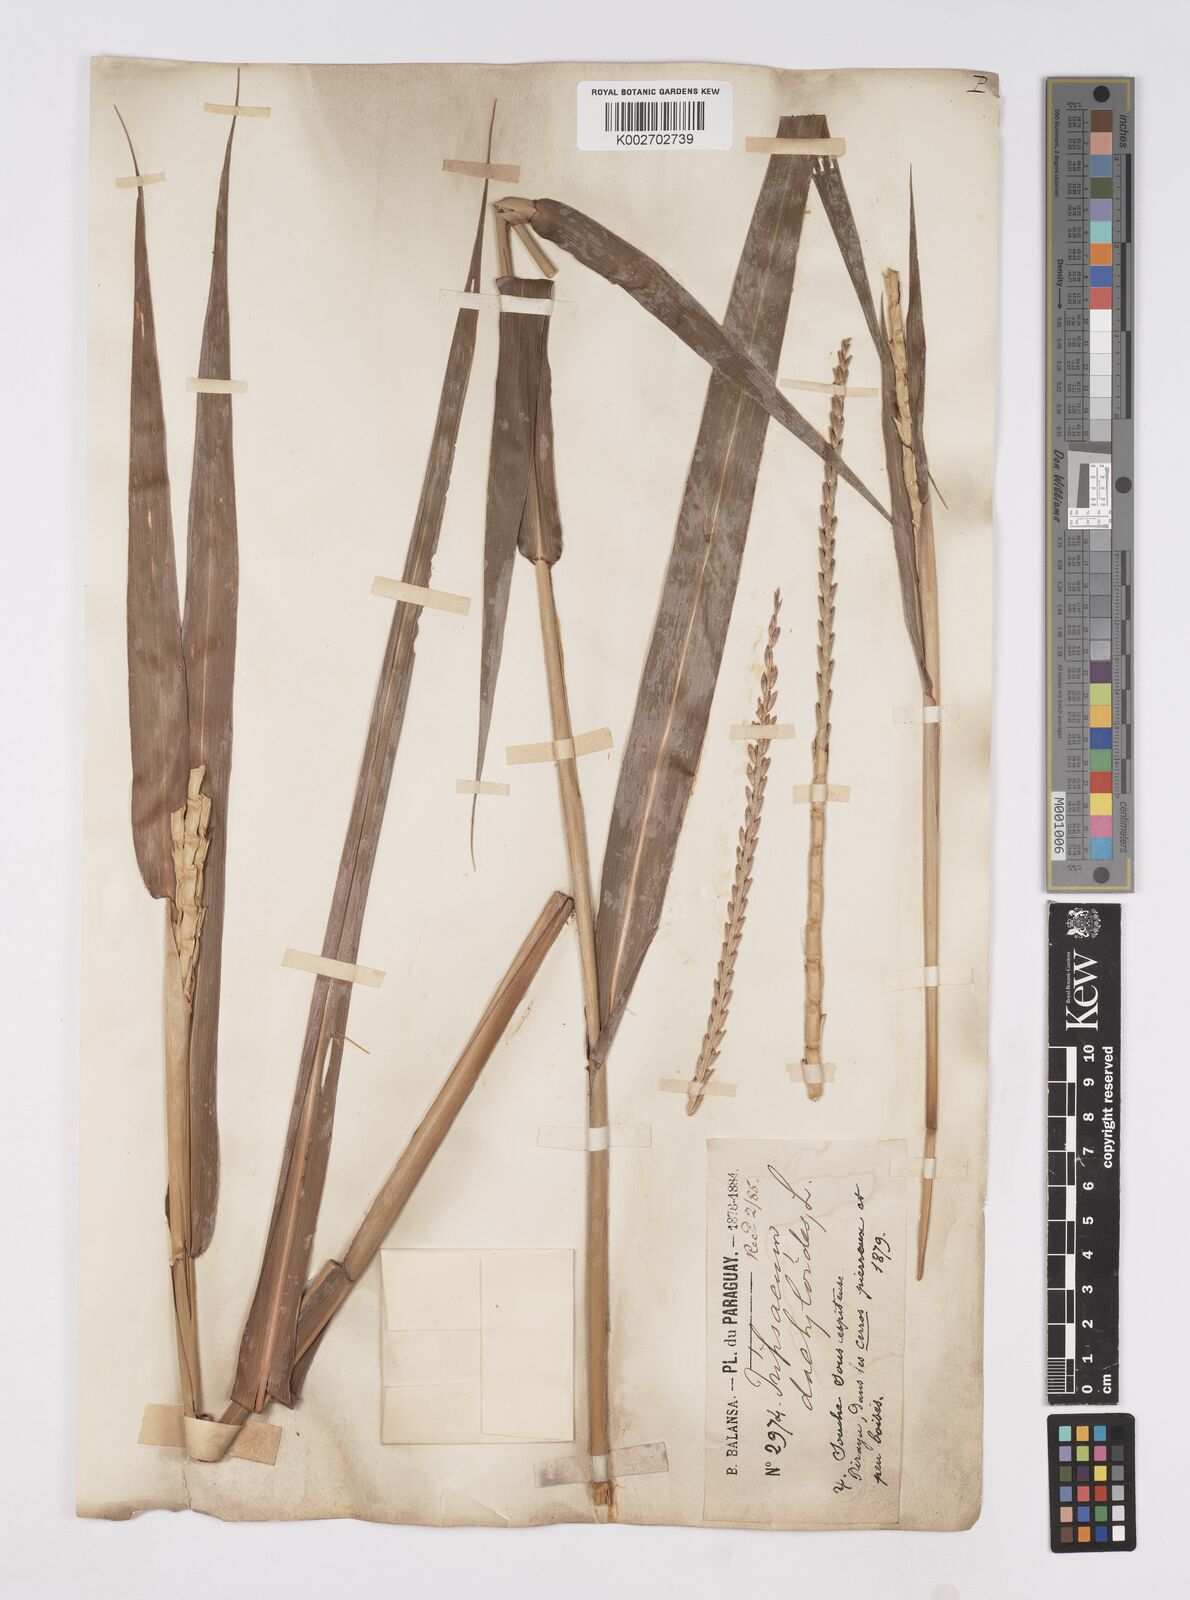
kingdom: Plantae
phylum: Tracheophyta
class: Liliopsida
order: Poales
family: Poaceae
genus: Tripsacum
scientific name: Tripsacum australe
